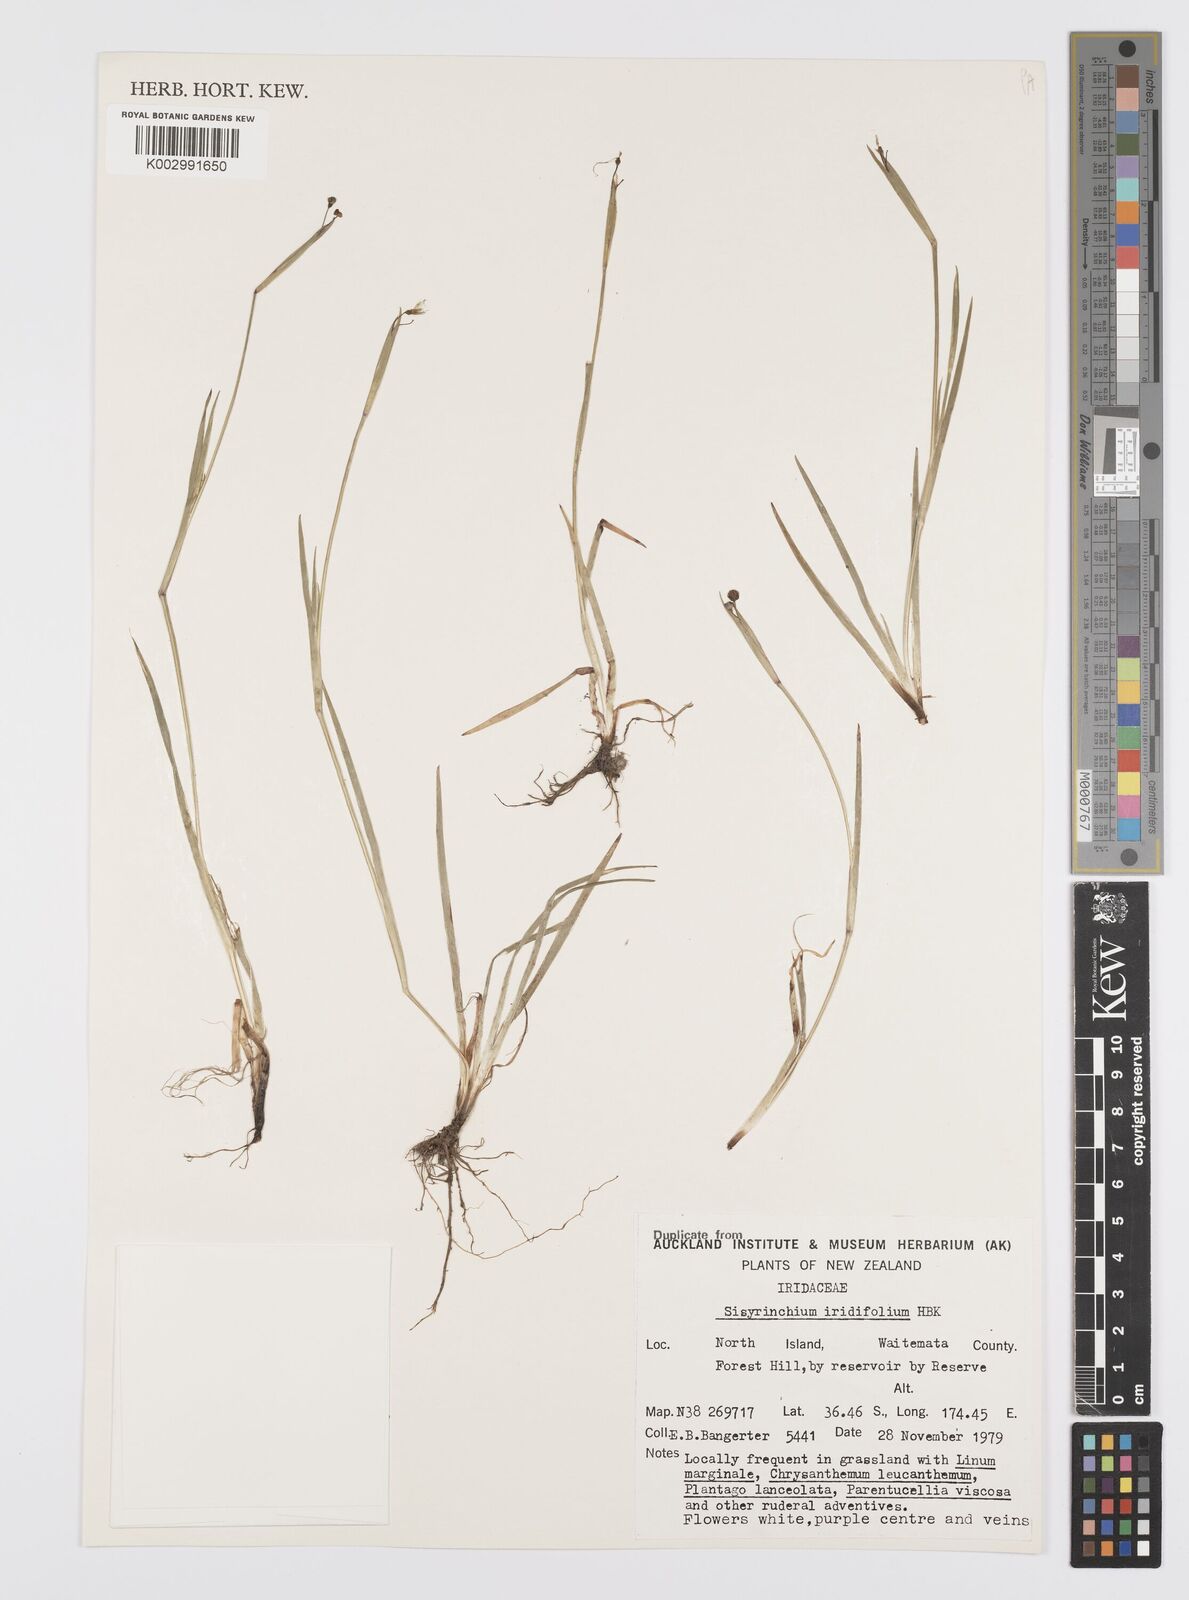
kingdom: Plantae
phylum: Tracheophyta
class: Liliopsida
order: Asparagales
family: Iridaceae
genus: Sisyrinchium
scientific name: Sisyrinchium micranthum
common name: Bermuda pigroot
